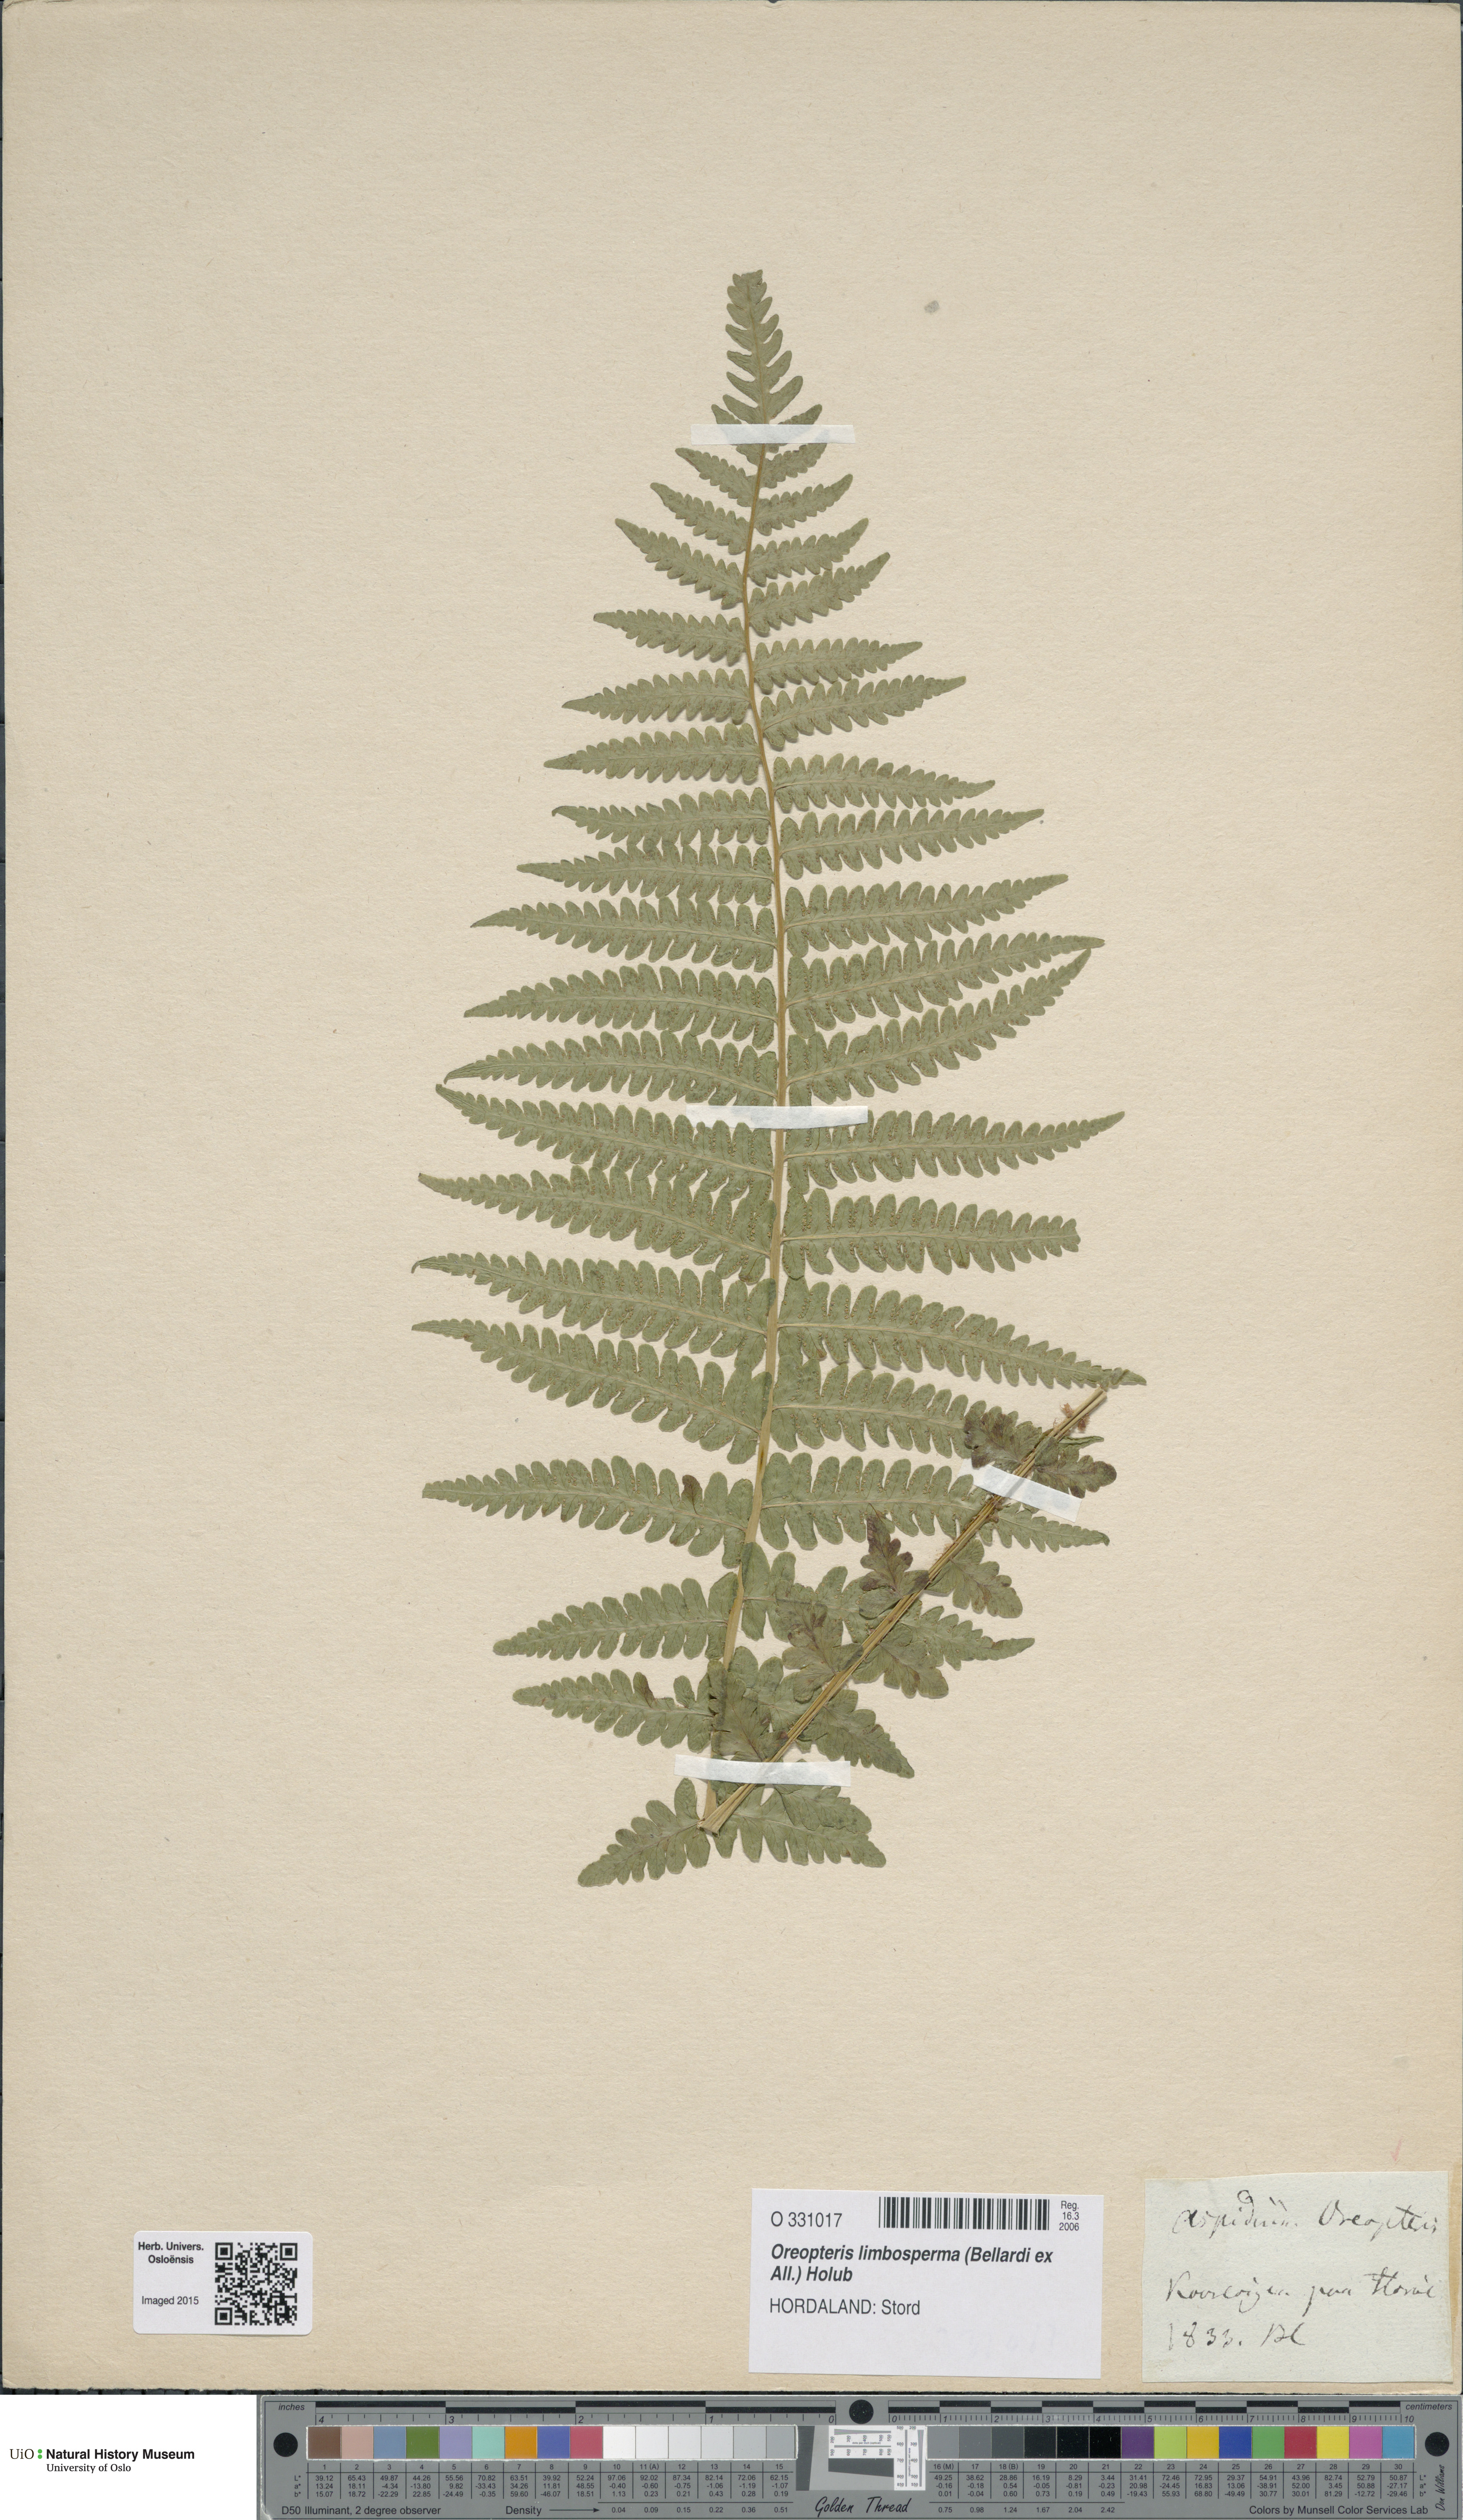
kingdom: Plantae
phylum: Tracheophyta
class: Polypodiopsida
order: Polypodiales
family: Thelypteridaceae
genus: Oreopteris
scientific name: Oreopteris limbosperma
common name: Lemon-scented fern
